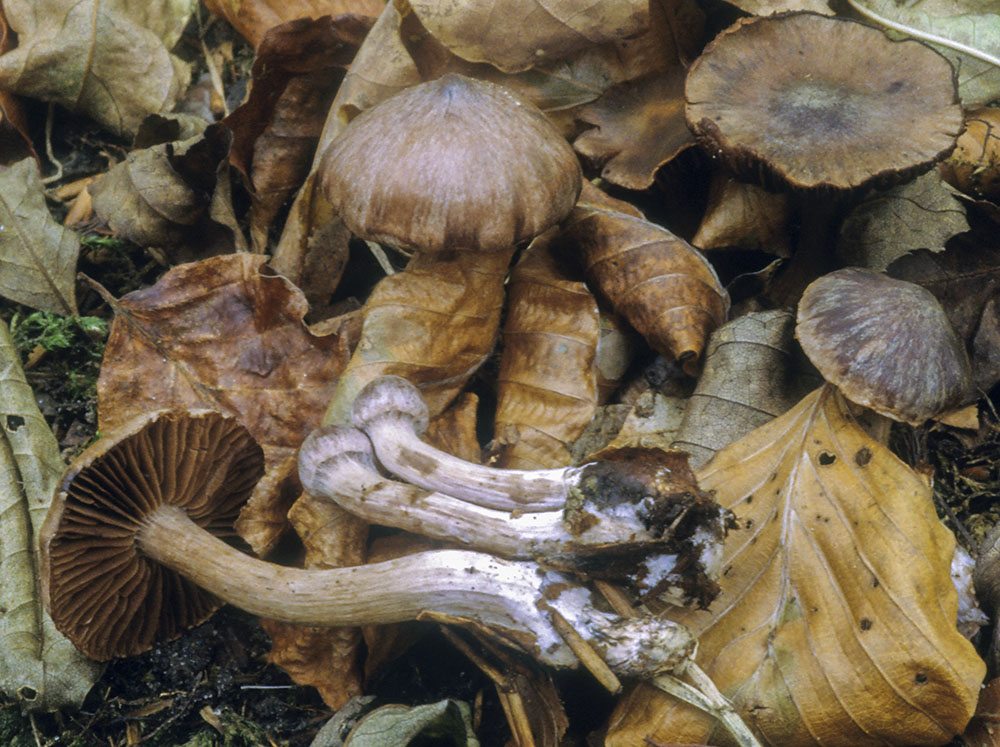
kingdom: Fungi
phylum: Basidiomycota
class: Agaricomycetes
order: Agaricales
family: Cortinariaceae
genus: Cortinarius
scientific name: Cortinarius anthracinicolor
